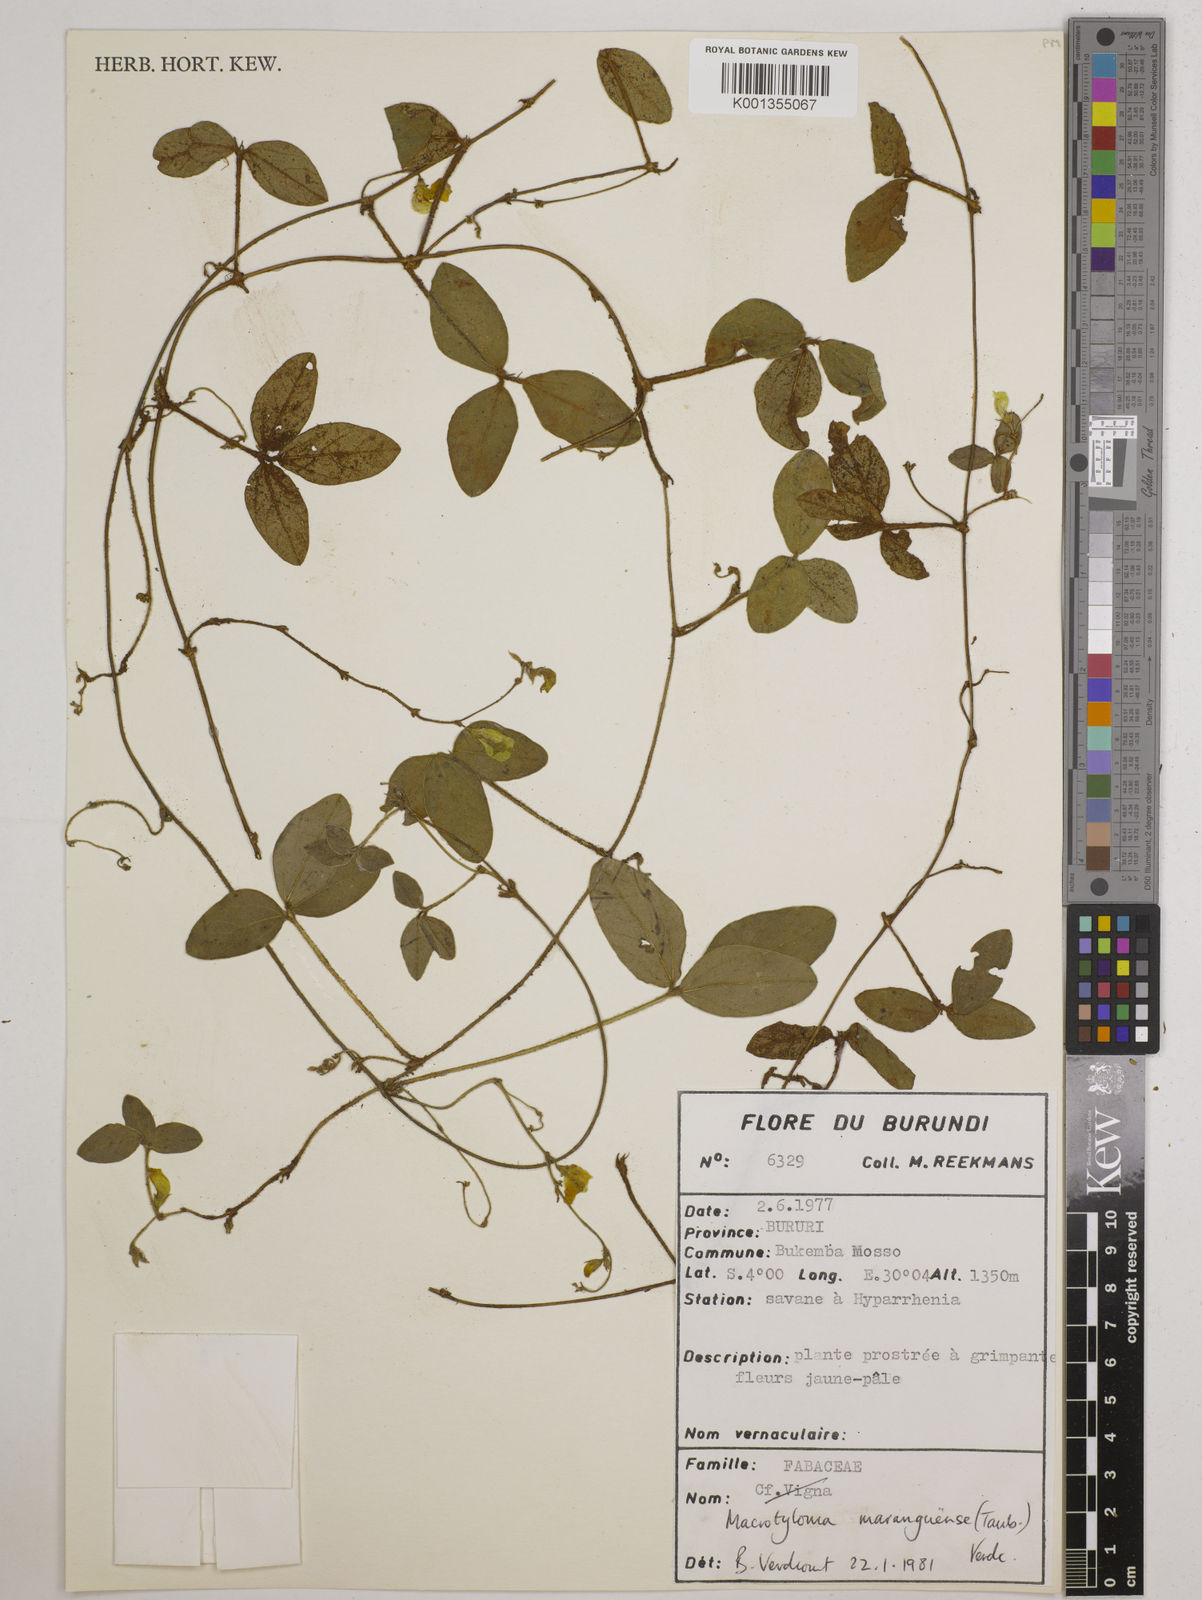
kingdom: Plantae
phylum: Tracheophyta
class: Magnoliopsida
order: Fabales
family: Fabaceae
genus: Macrotyloma
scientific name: Macrotyloma maranguense
